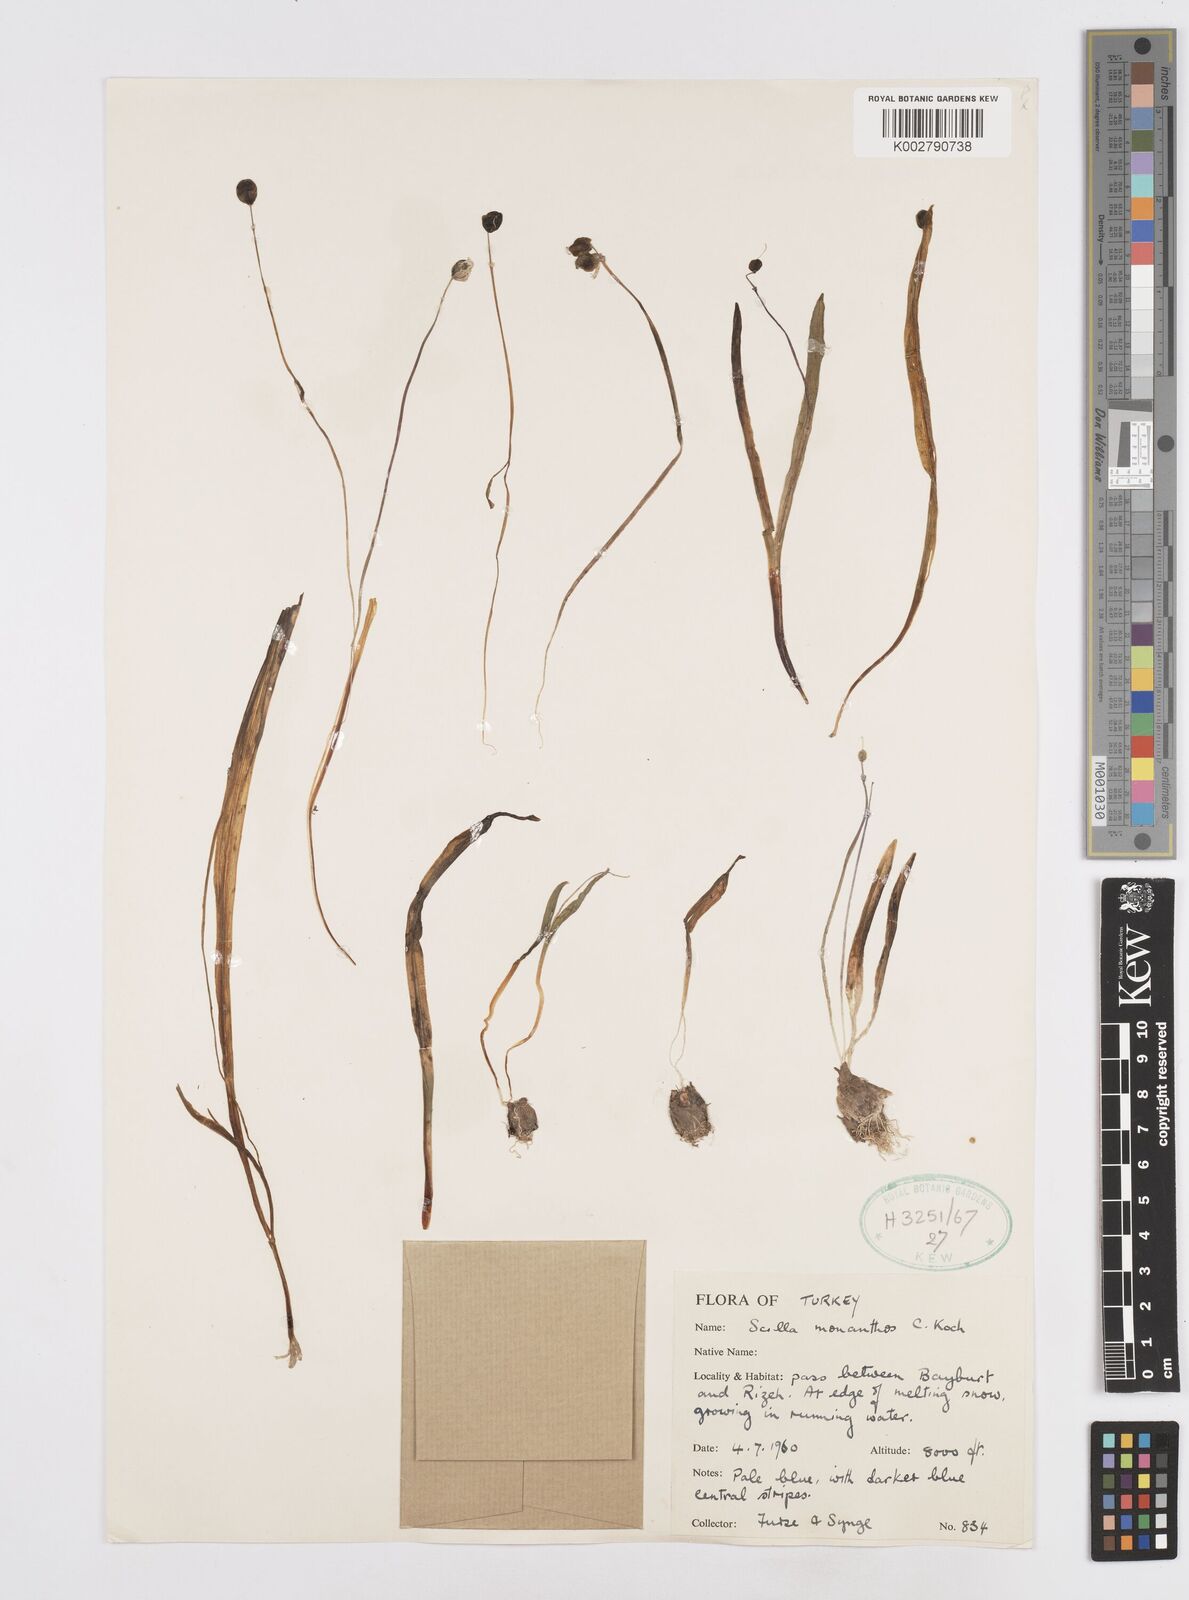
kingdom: Plantae
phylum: Tracheophyta
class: Liliopsida
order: Asparagales
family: Asparagaceae
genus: Scilla
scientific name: Scilla monanthos
